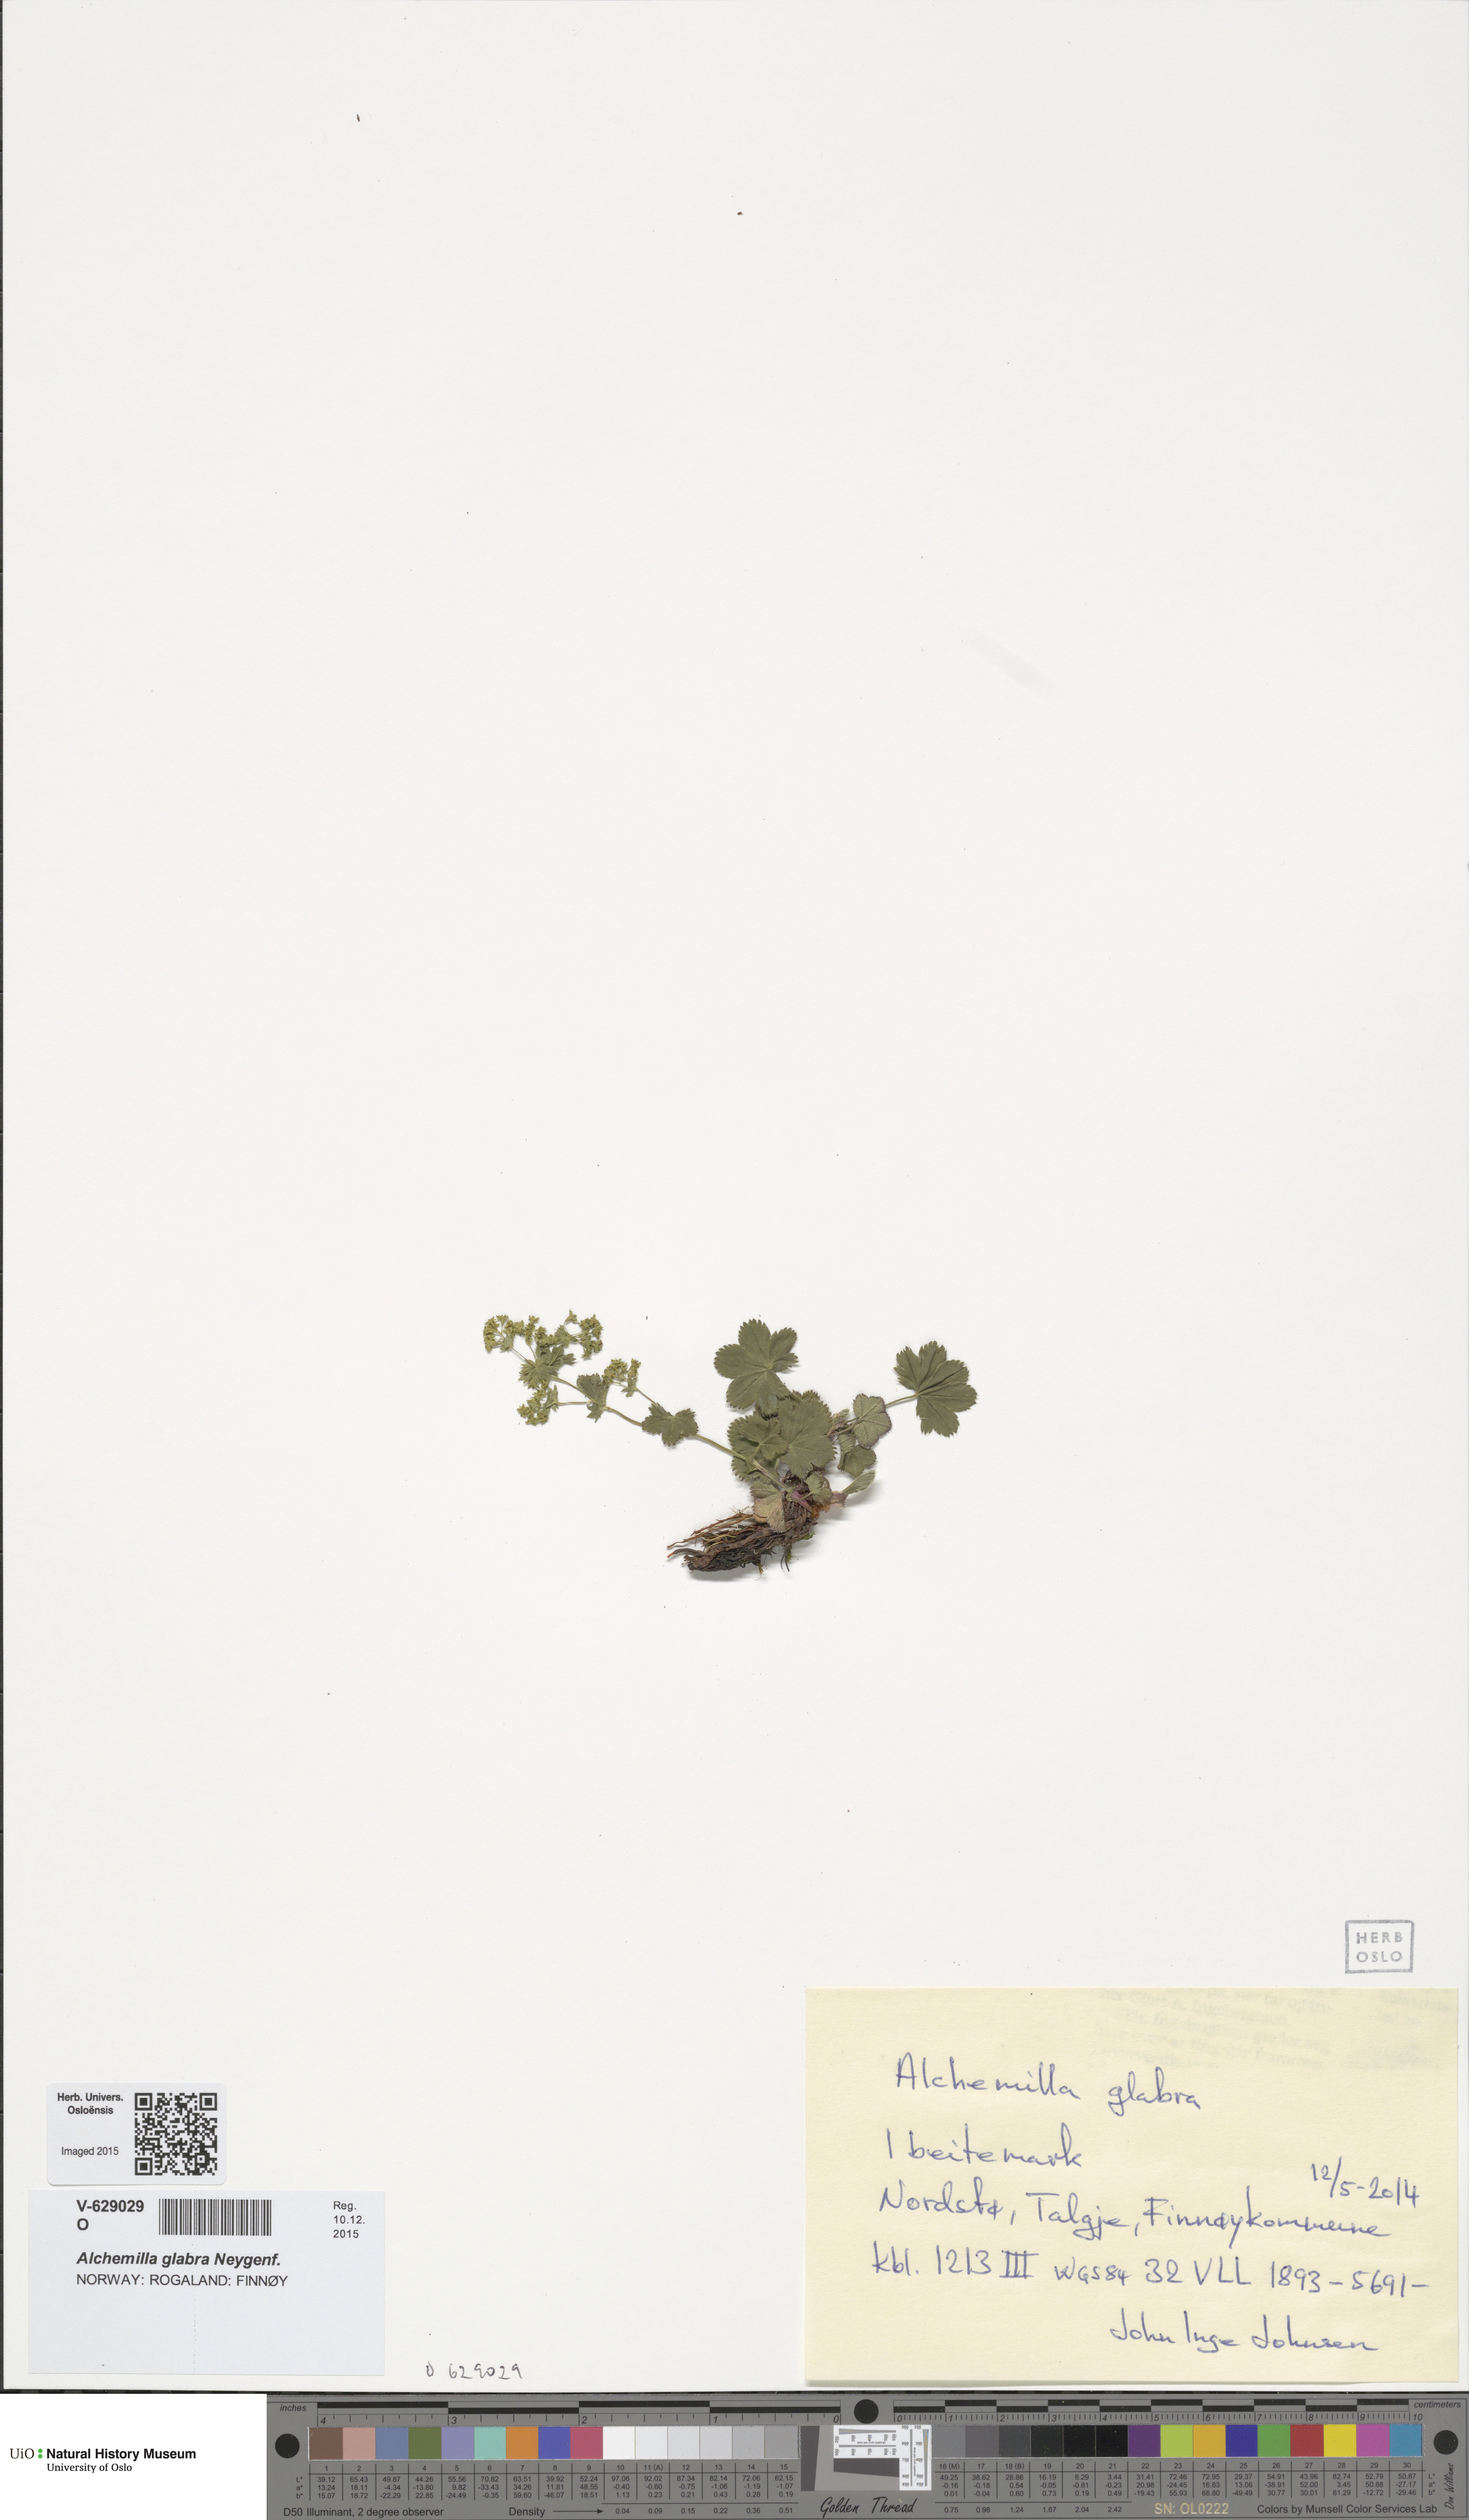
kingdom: Plantae
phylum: Tracheophyta
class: Magnoliopsida
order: Rosales
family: Rosaceae
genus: Alchemilla
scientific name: Alchemilla glabra
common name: Smooth lady's-mantle
